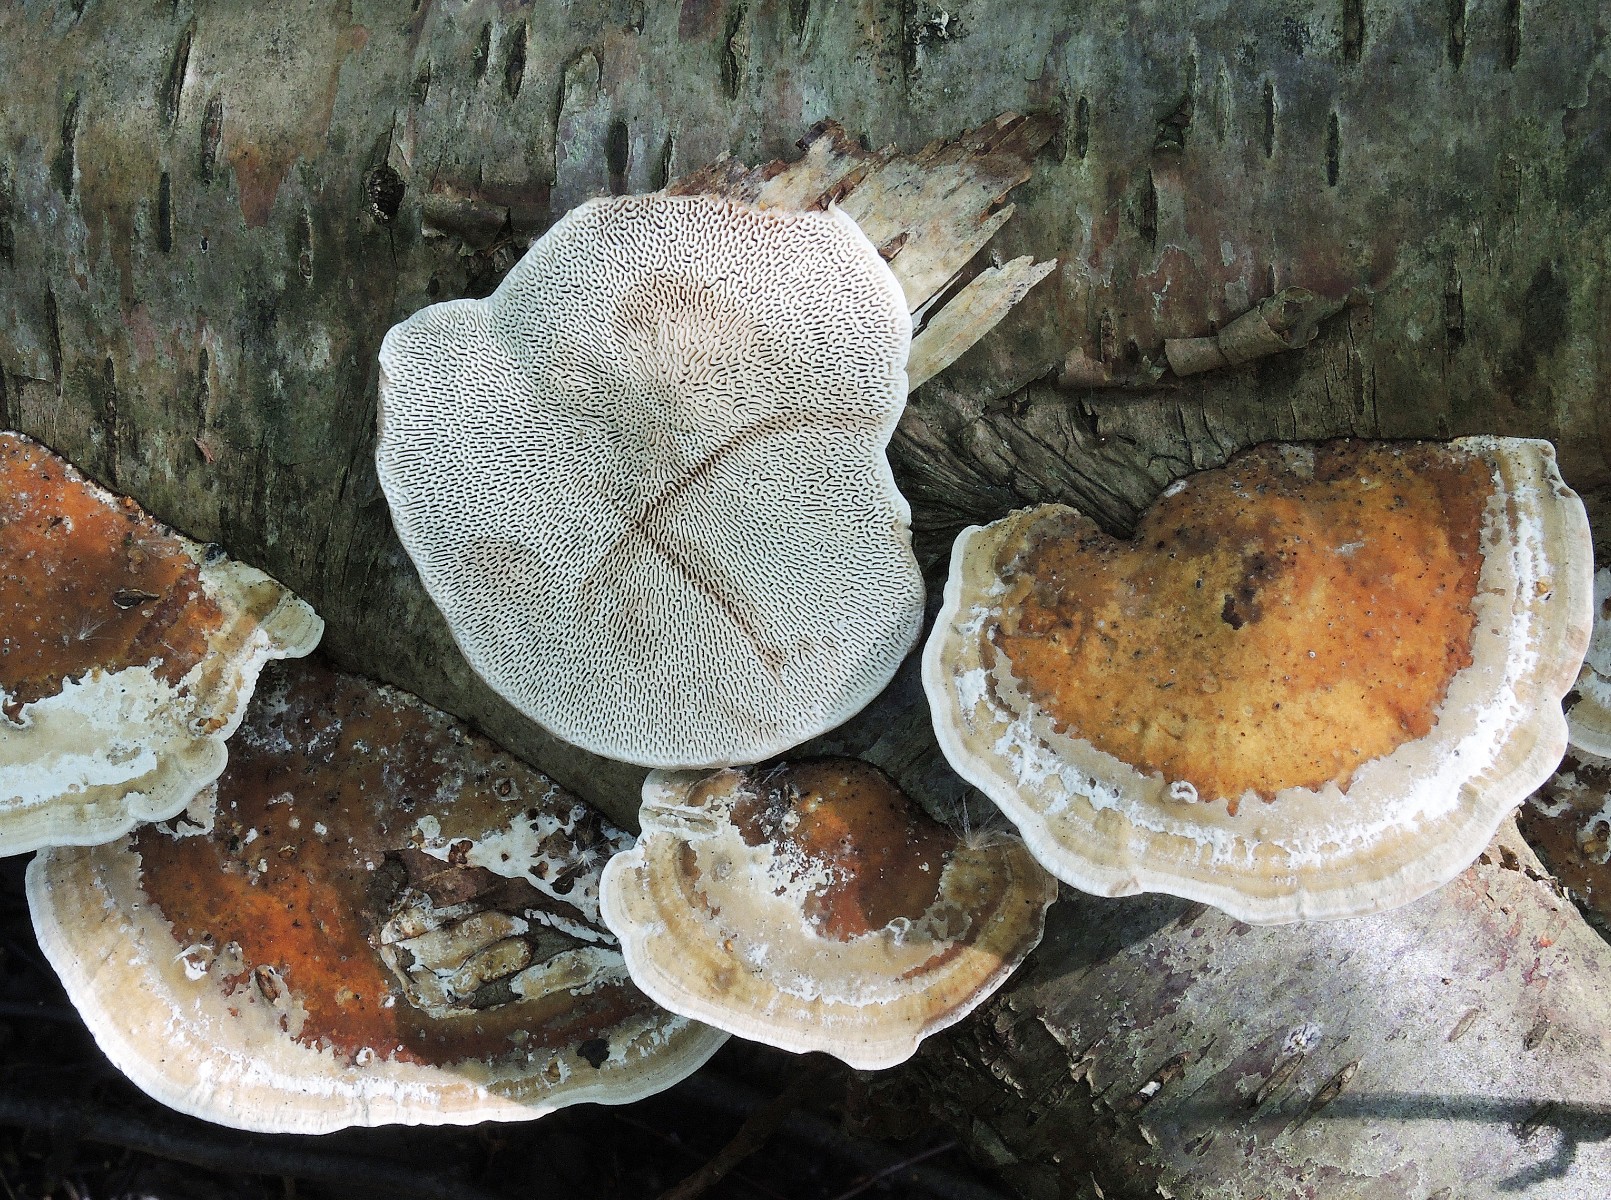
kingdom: Fungi
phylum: Basidiomycota
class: Agaricomycetes
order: Polyporales
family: Polyporaceae
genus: Daedaleopsis
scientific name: Daedaleopsis confragosa
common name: rødmende læderporesvamp
